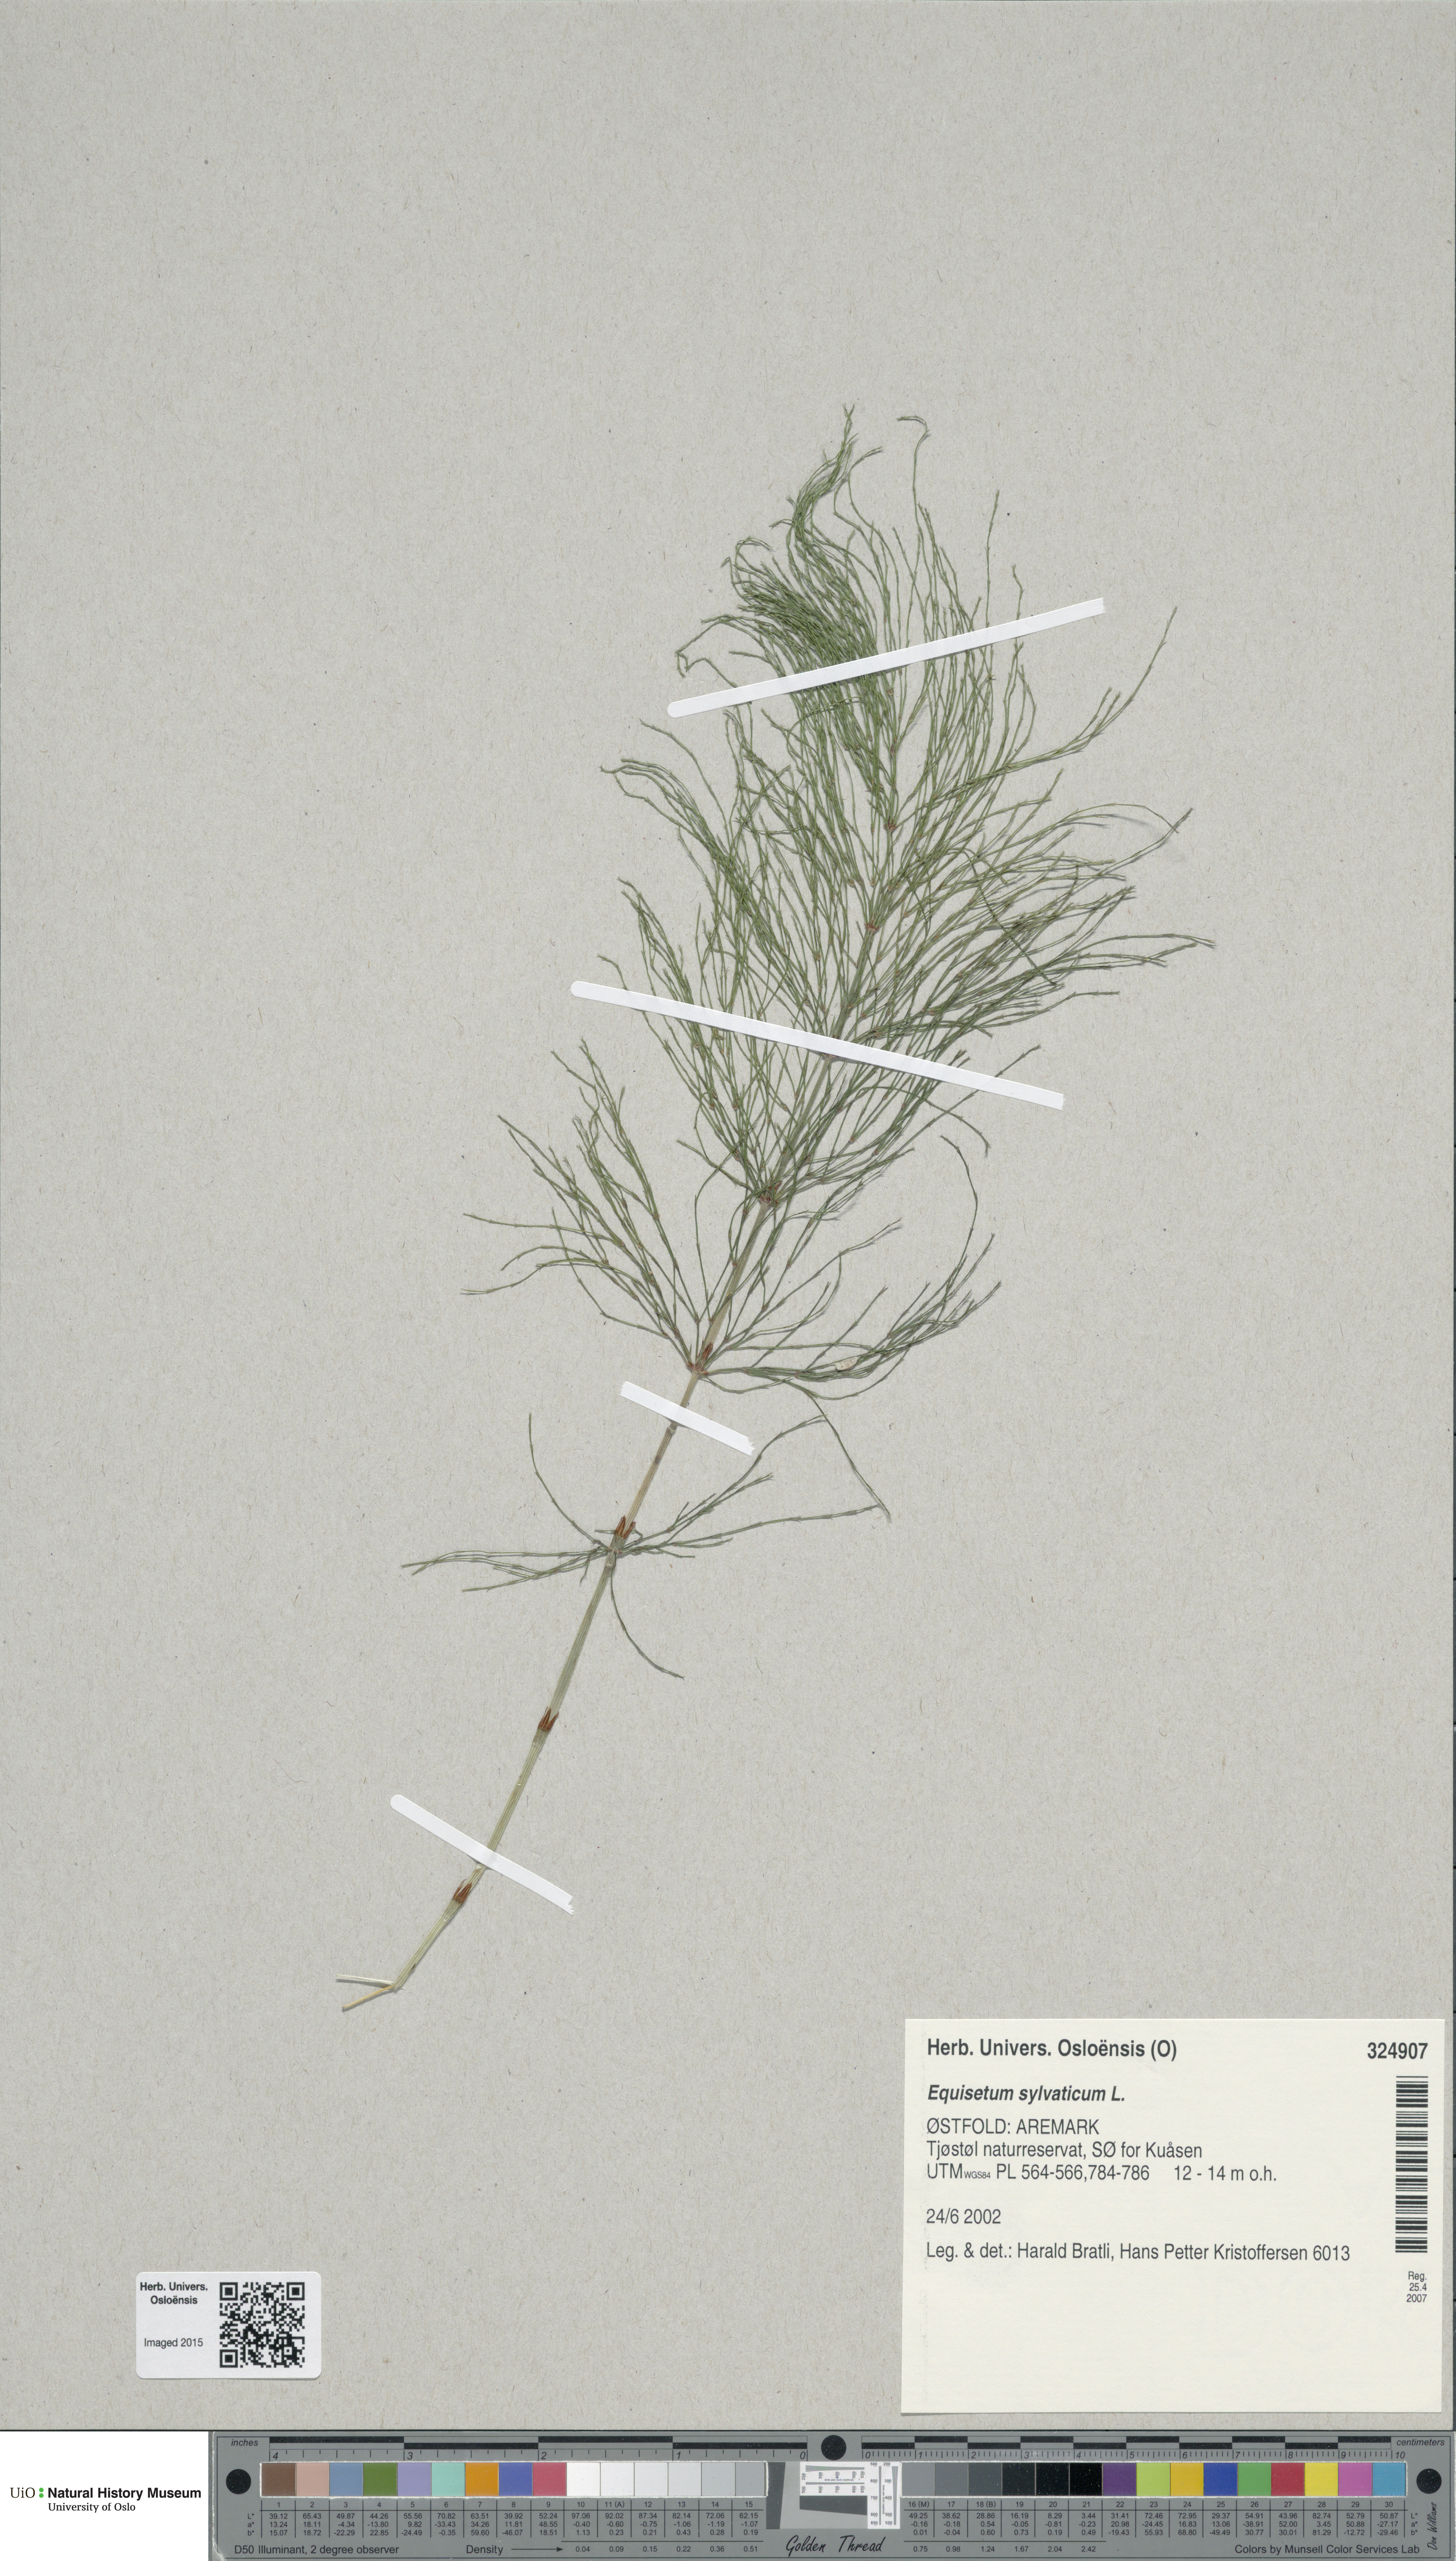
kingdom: Plantae
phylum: Tracheophyta
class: Polypodiopsida
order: Equisetales
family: Equisetaceae
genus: Equisetum
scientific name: Equisetum sylvaticum
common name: Wood horsetail
